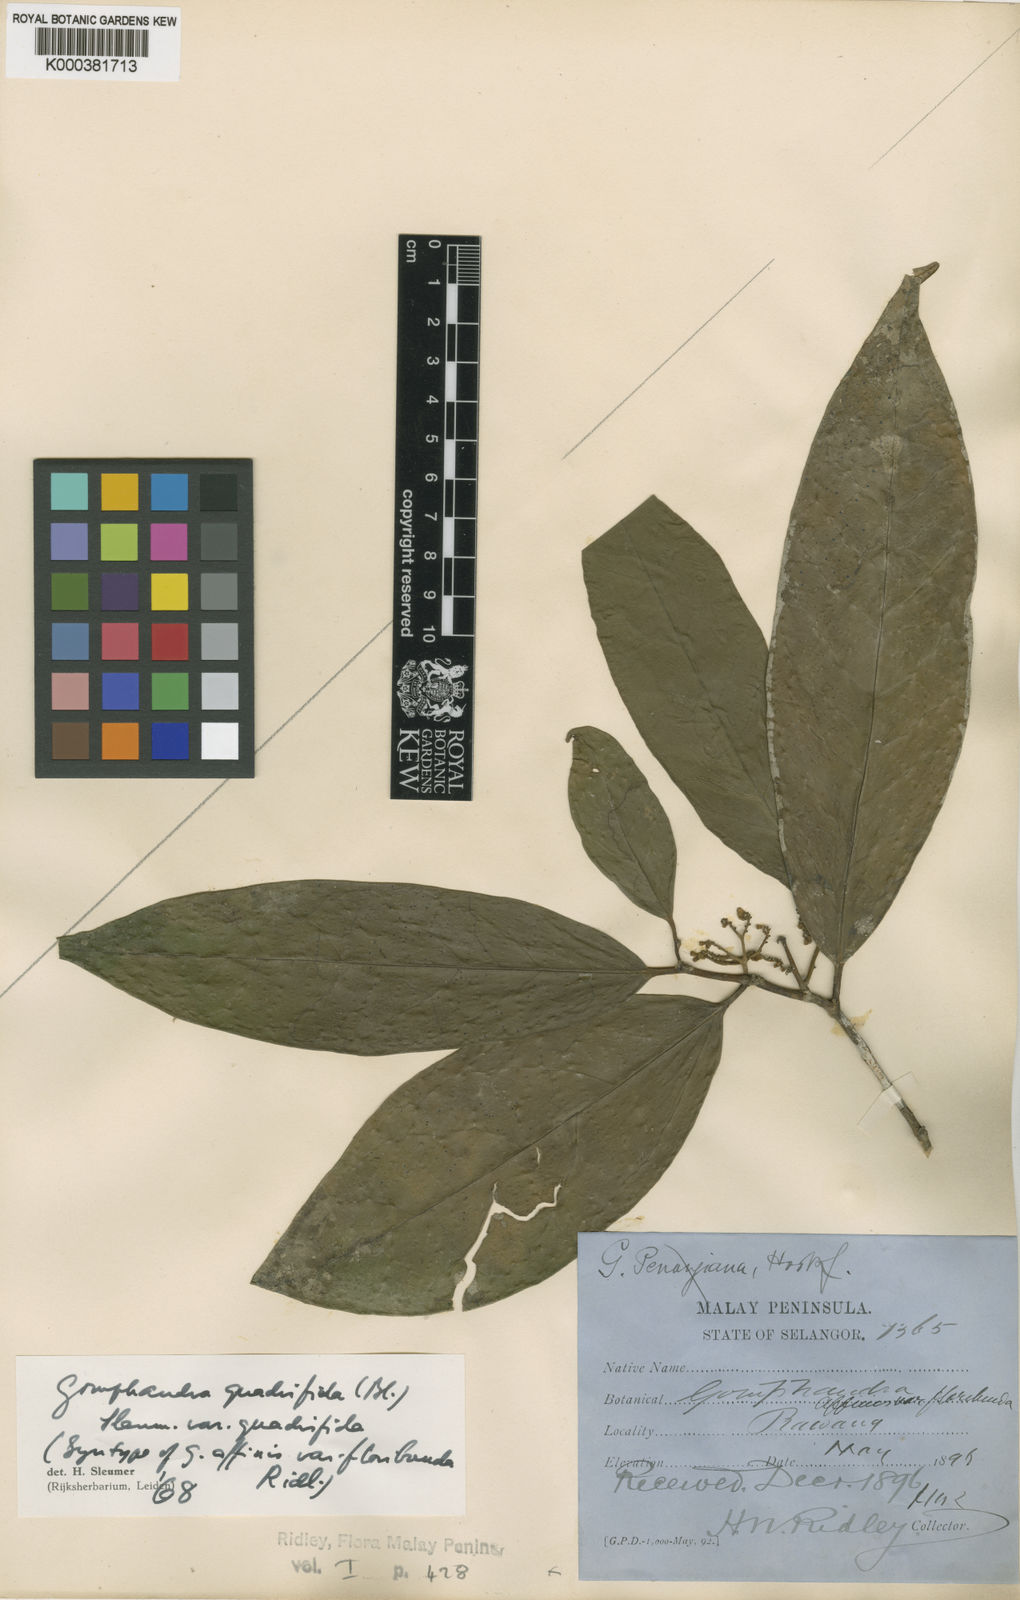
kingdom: Plantae
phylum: Tracheophyta
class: Magnoliopsida
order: Cardiopteridales
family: Stemonuraceae
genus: Gomphandra
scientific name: Gomphandra quadrifida
